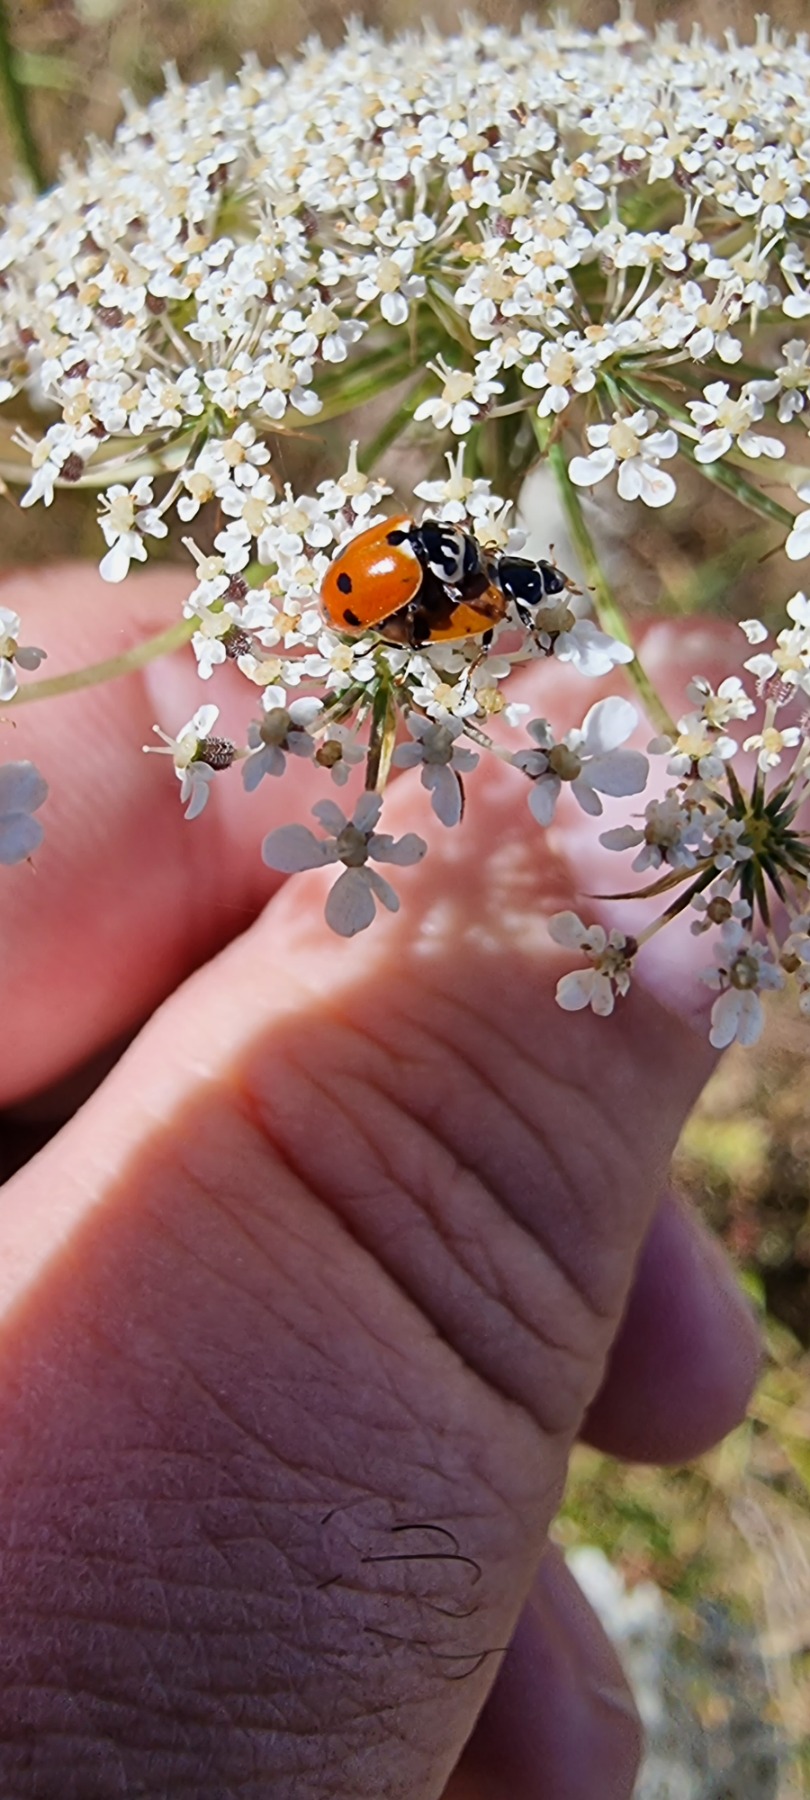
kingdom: Animalia
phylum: Arthropoda
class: Insecta
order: Coleoptera
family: Coccinellidae
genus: Hippodamia
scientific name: Hippodamia variegata
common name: Adonis' mariehøne
